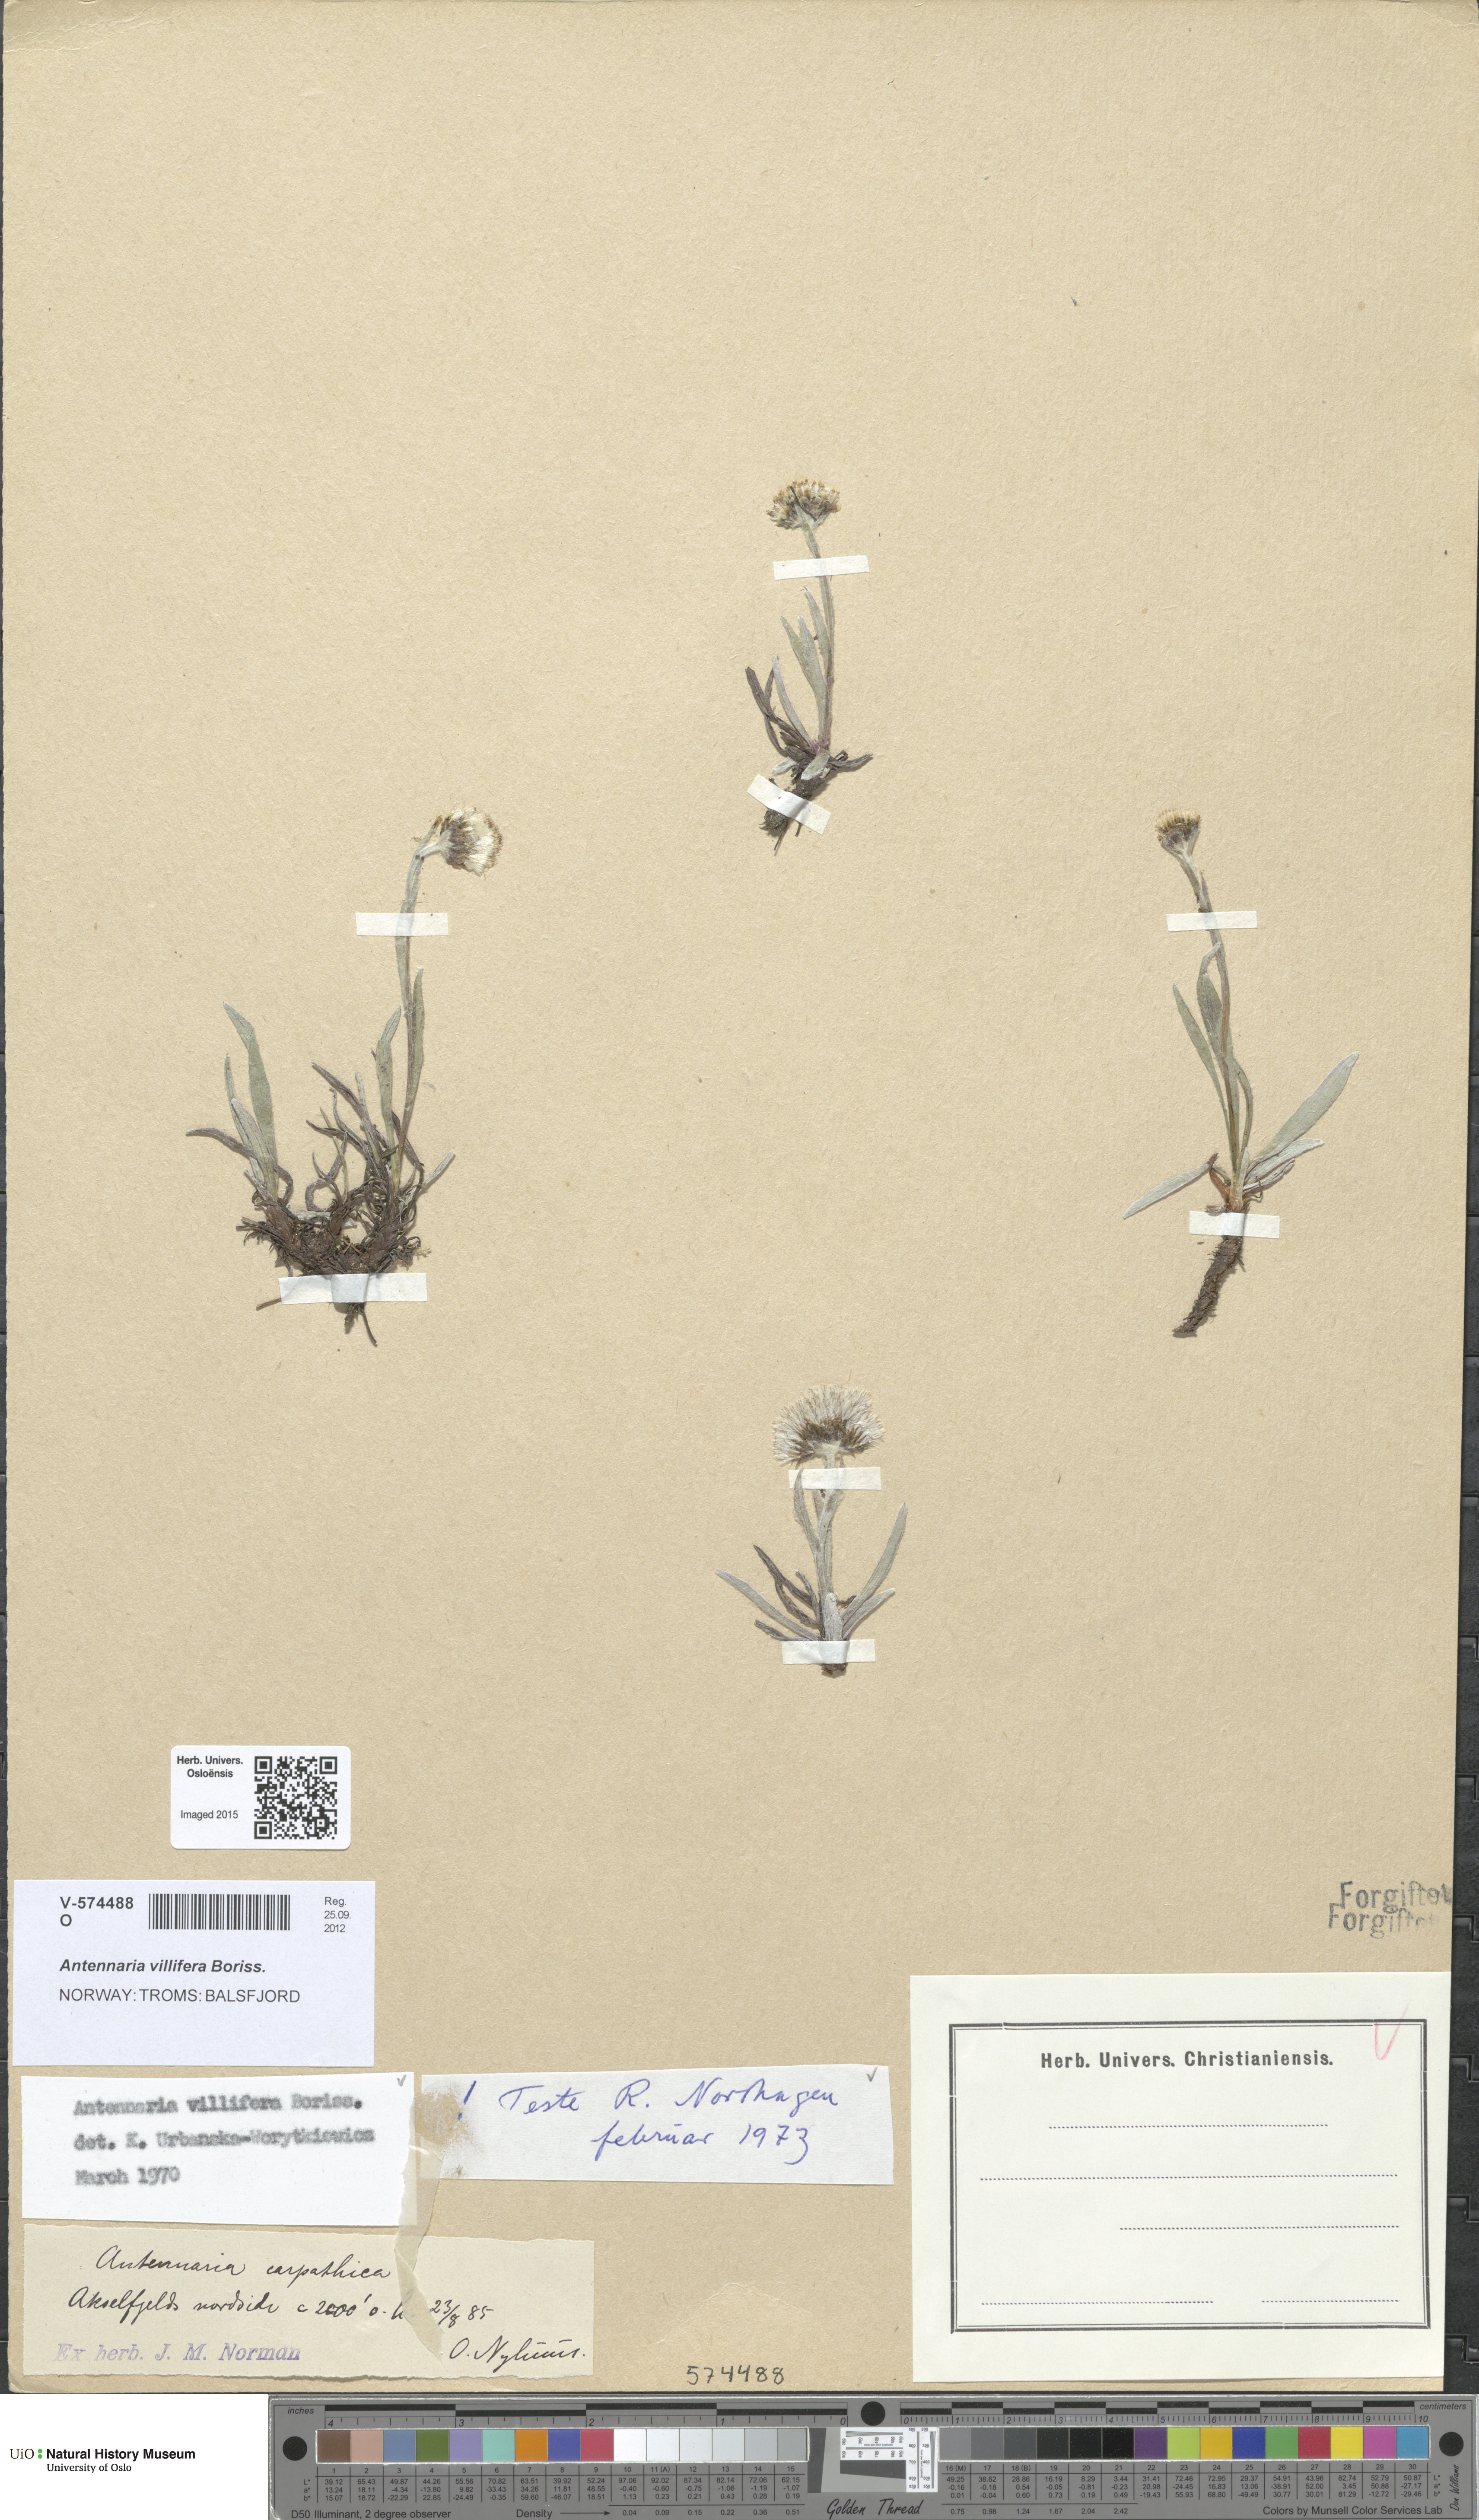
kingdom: Plantae
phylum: Tracheophyta
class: Magnoliopsida
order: Asterales
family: Asteraceae
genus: Antennaria
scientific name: Antennaria lanata
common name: Woolly pussytoes
